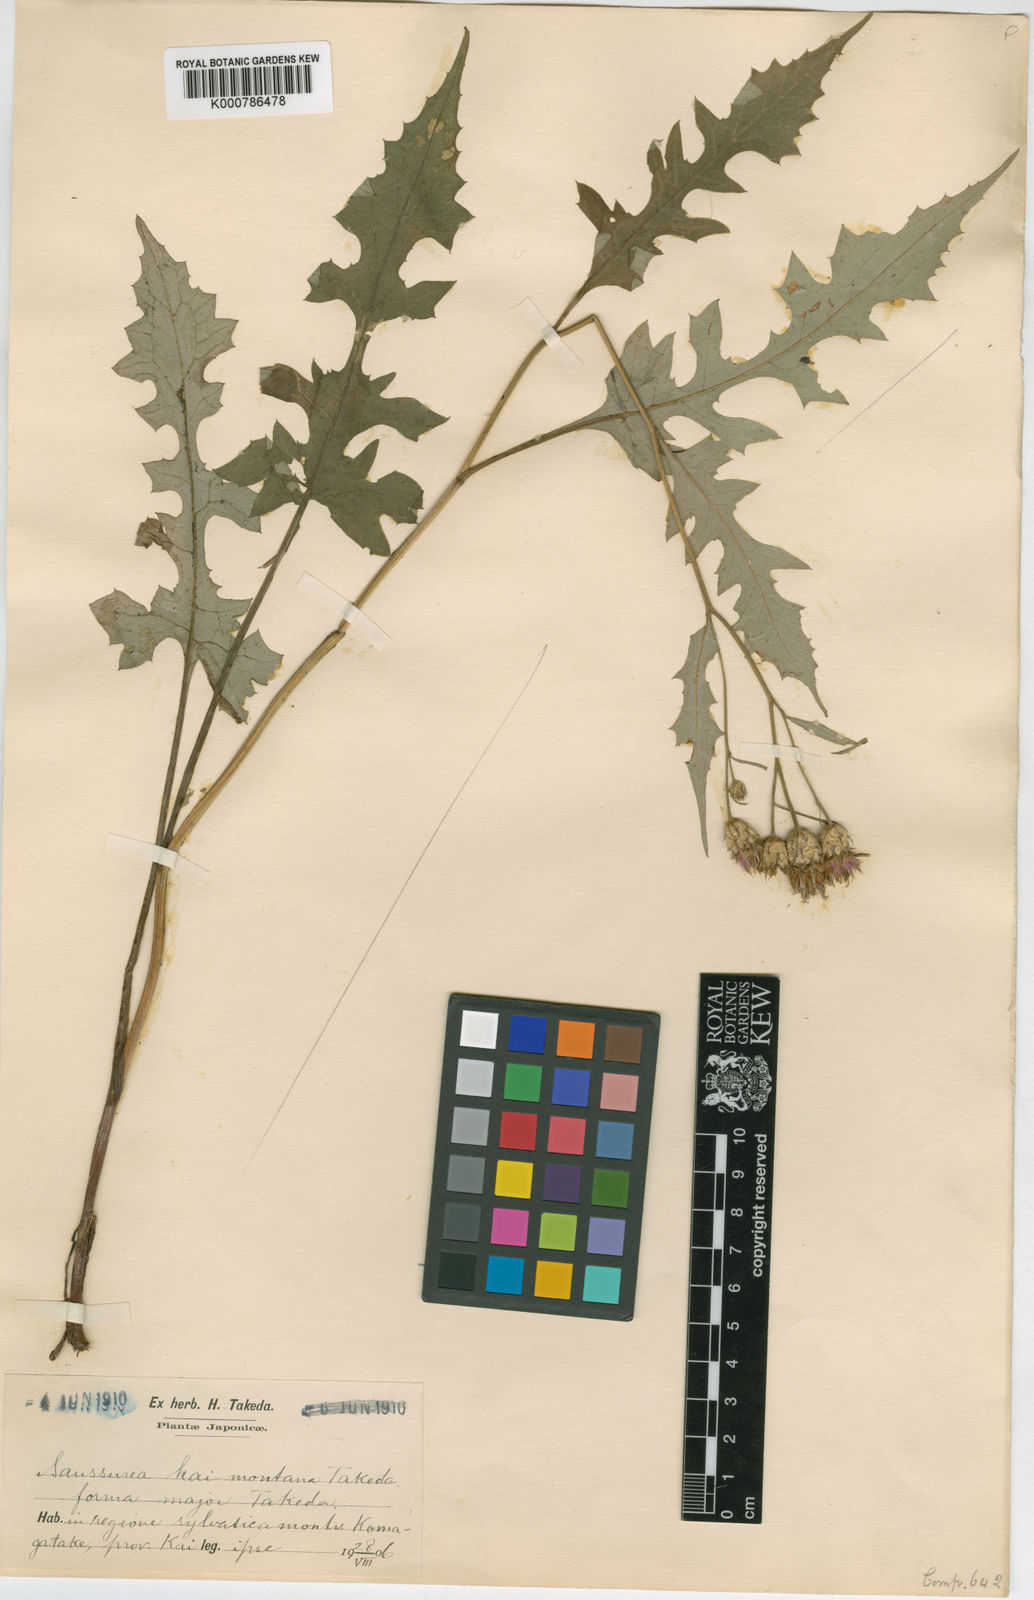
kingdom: Plantae
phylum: Tracheophyta
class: Magnoliopsida
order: Asterales
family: Asteraceae
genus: Saussurea
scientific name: Saussurea triptera
